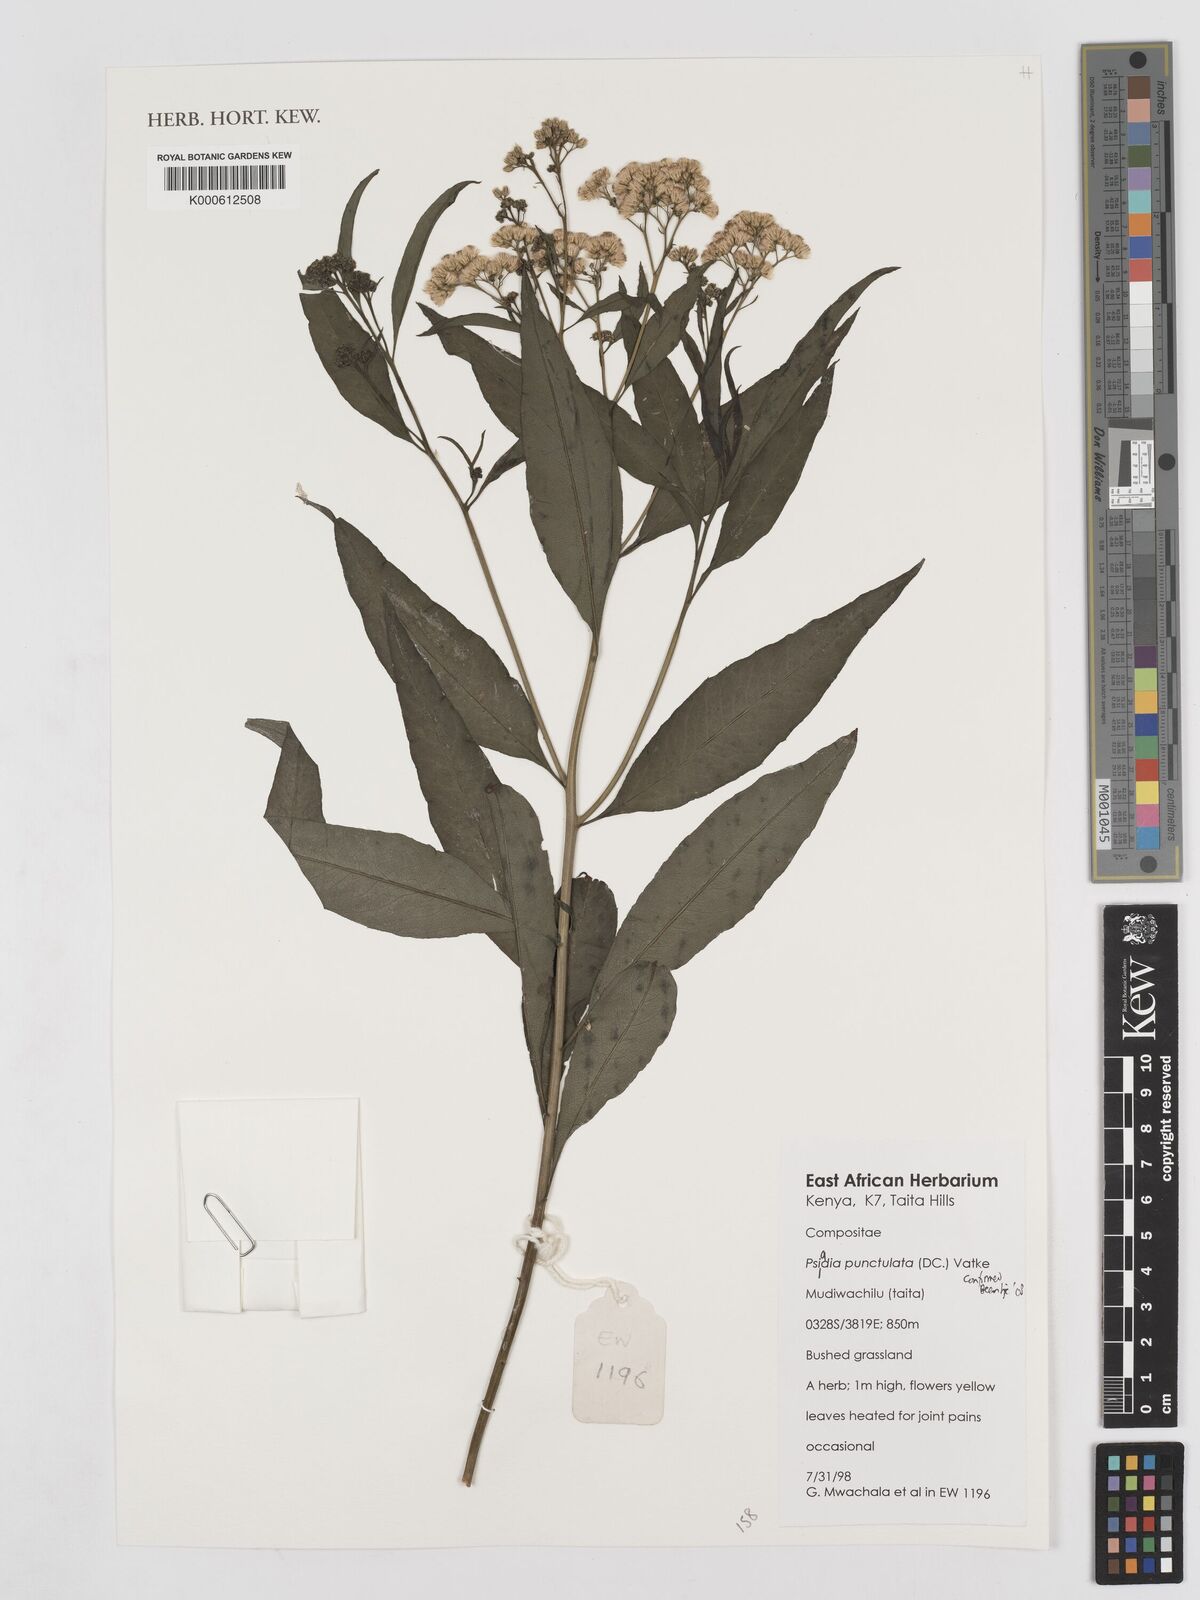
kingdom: Plantae
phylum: Tracheophyta
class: Magnoliopsida
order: Asterales
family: Asteraceae
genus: Psiadia
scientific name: Psiadia punctulata
